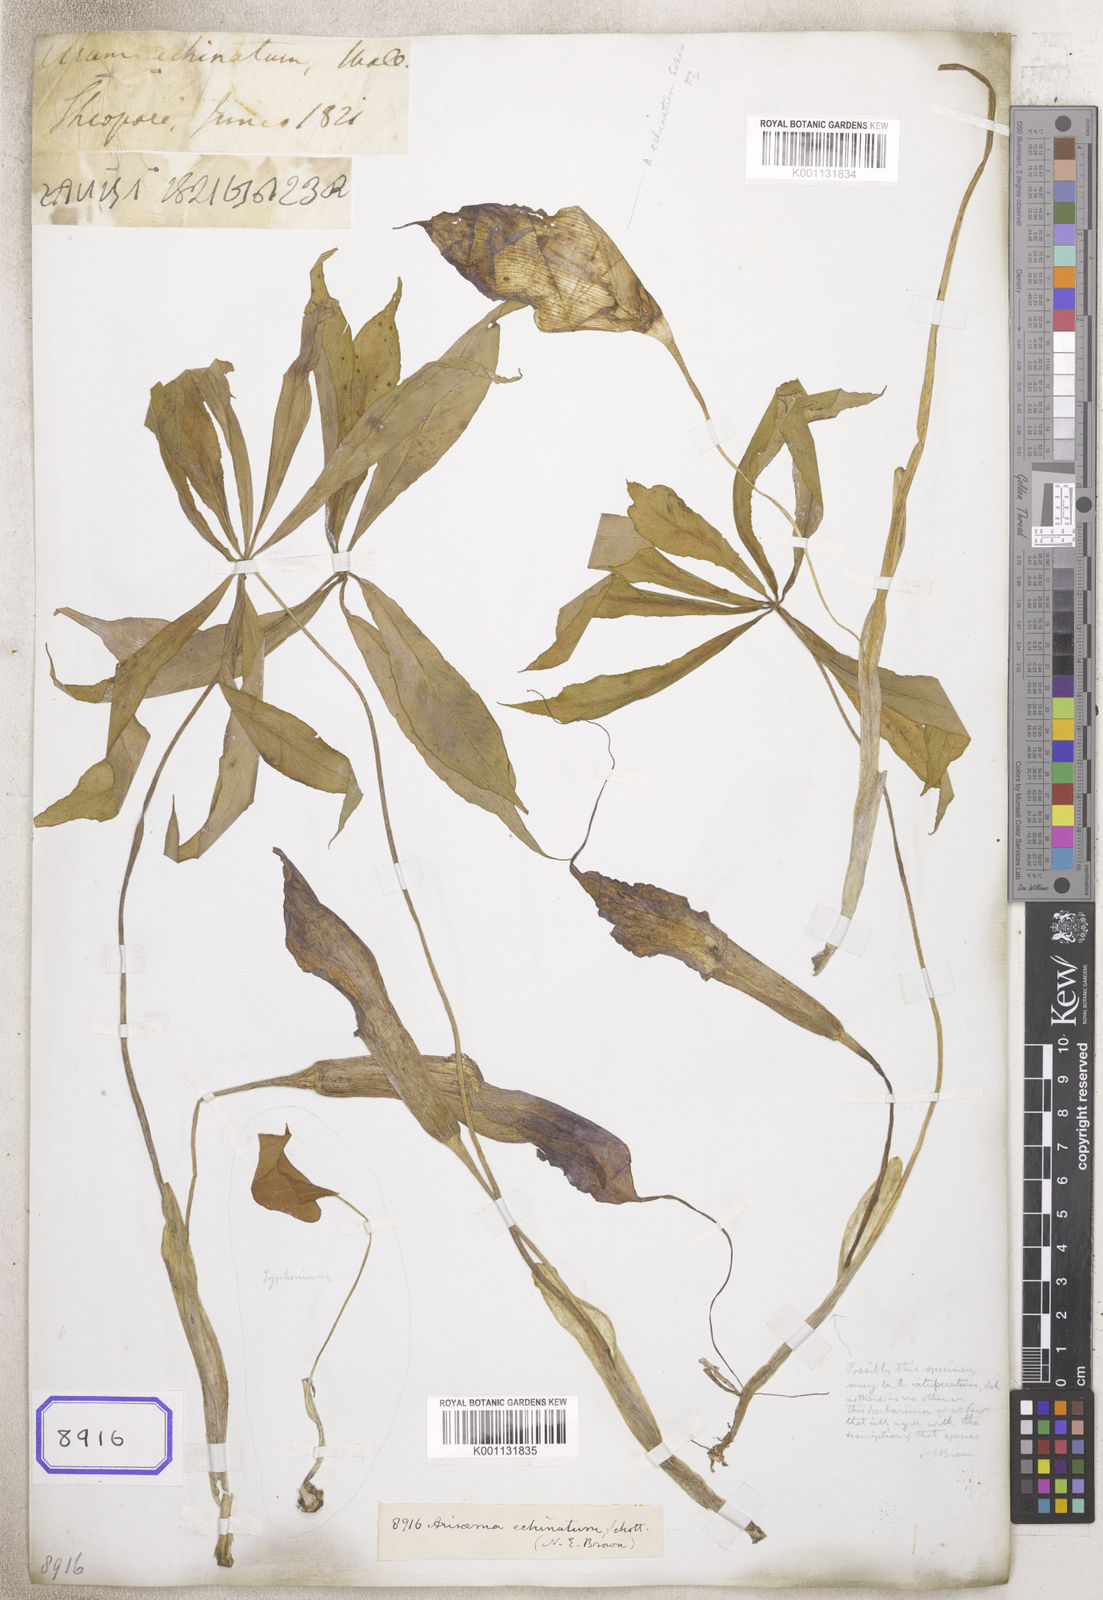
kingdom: Plantae
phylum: Tracheophyta
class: Liliopsida
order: Alismatales
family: Araceae
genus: Arisaema
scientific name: Arisaema echinatum
